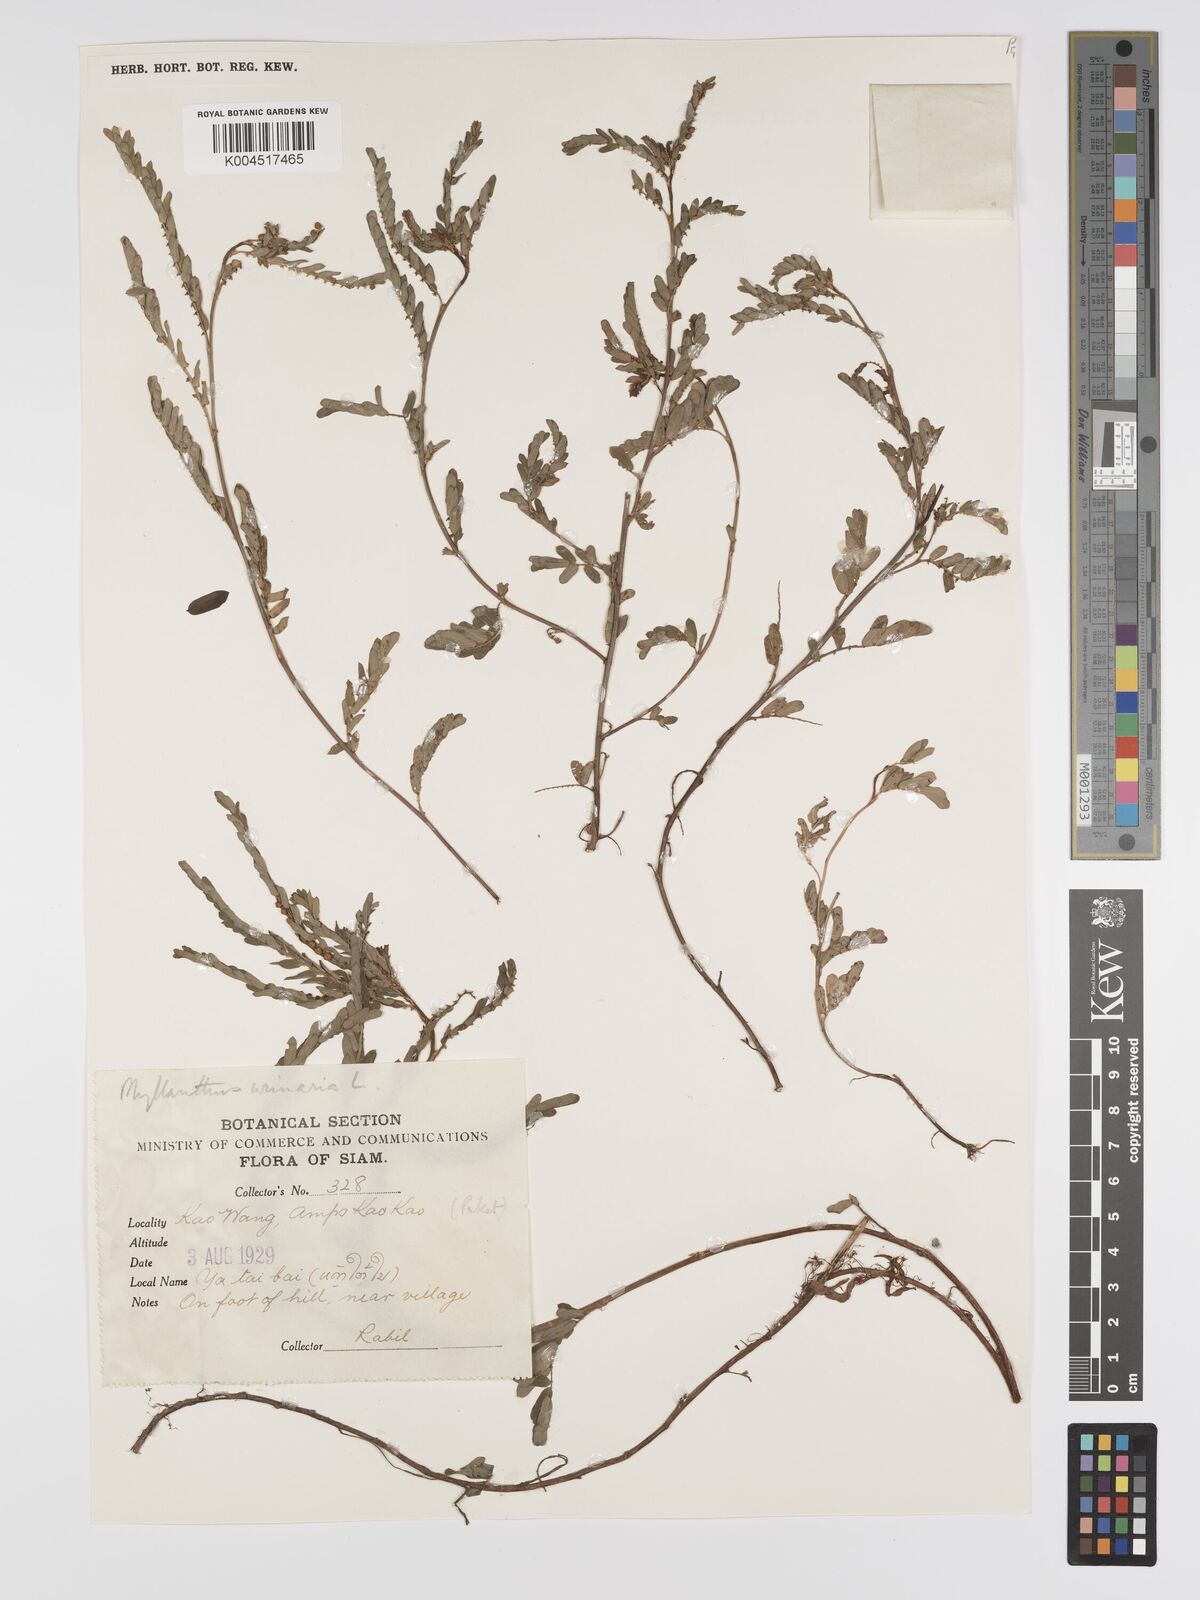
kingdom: Plantae
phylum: Tracheophyta
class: Magnoliopsida
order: Malpighiales
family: Phyllanthaceae
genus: Phyllanthus
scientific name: Phyllanthus urinaria
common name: Chamber bitter
